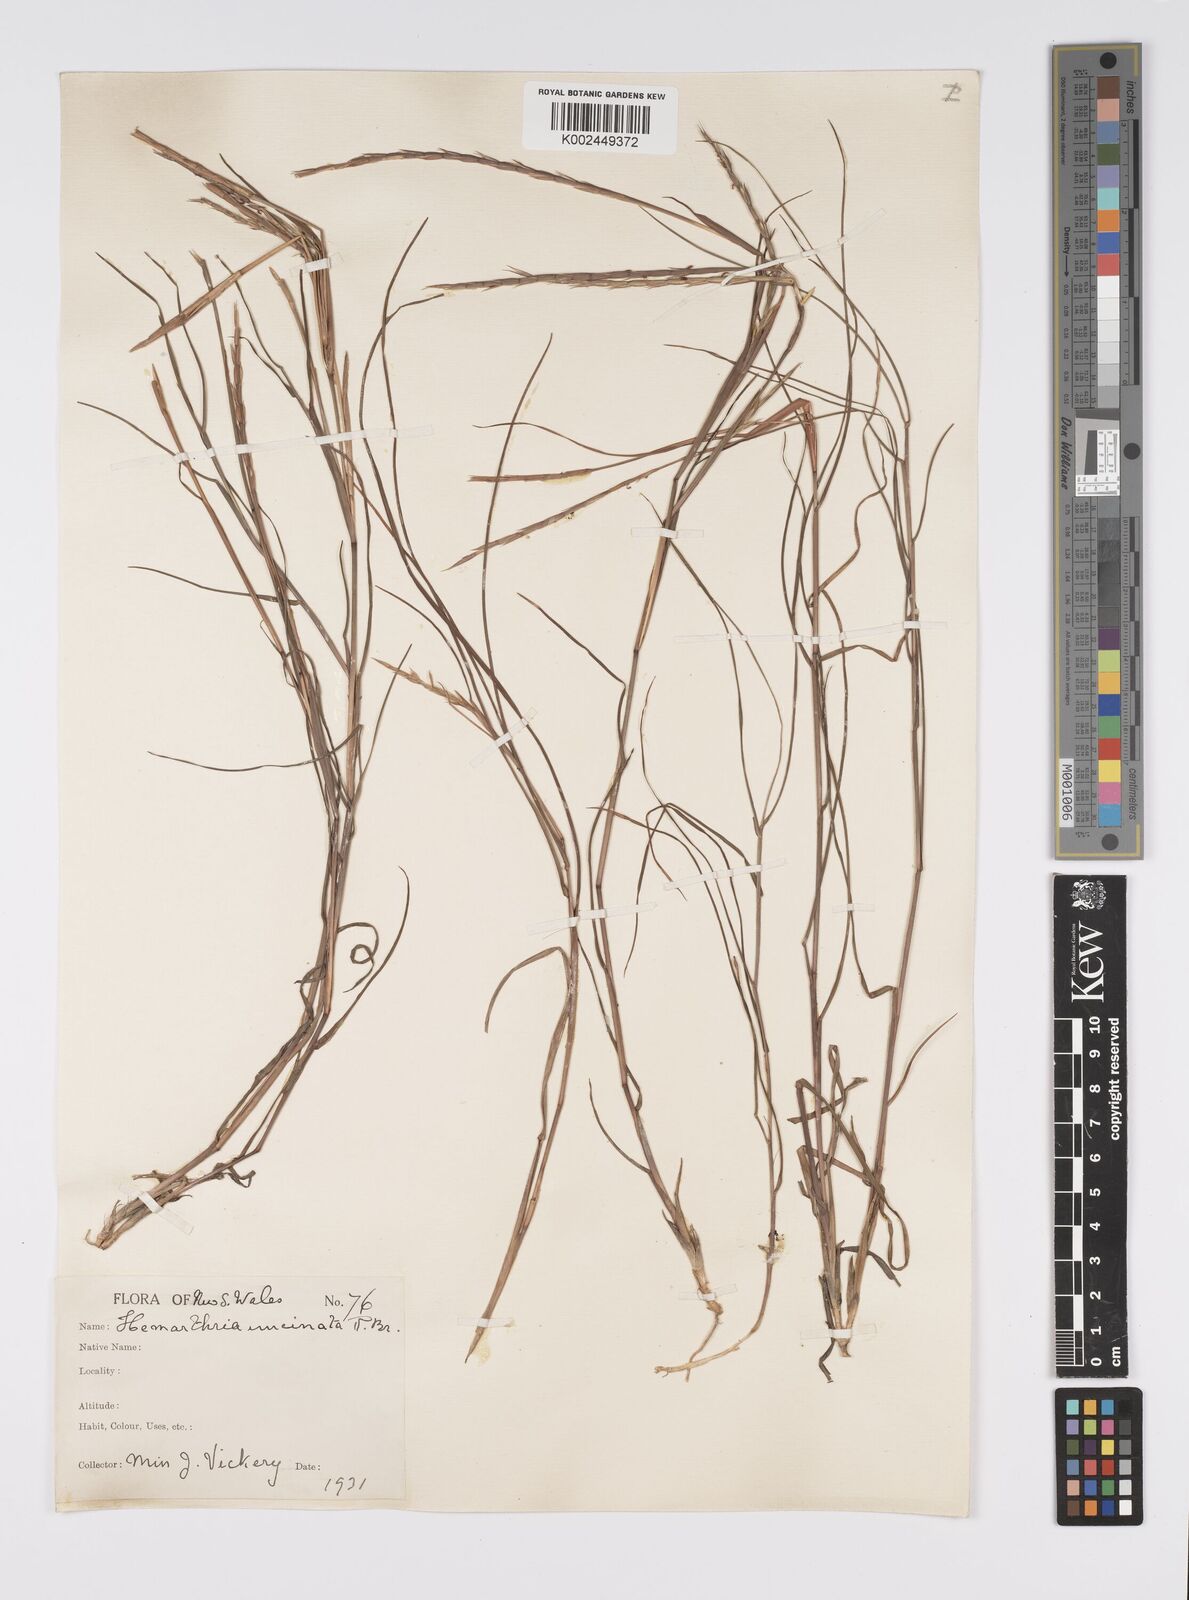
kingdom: Plantae
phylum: Tracheophyta
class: Liliopsida
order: Poales
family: Poaceae
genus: Hemarthria
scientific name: Hemarthria uncinata
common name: Matgrass
